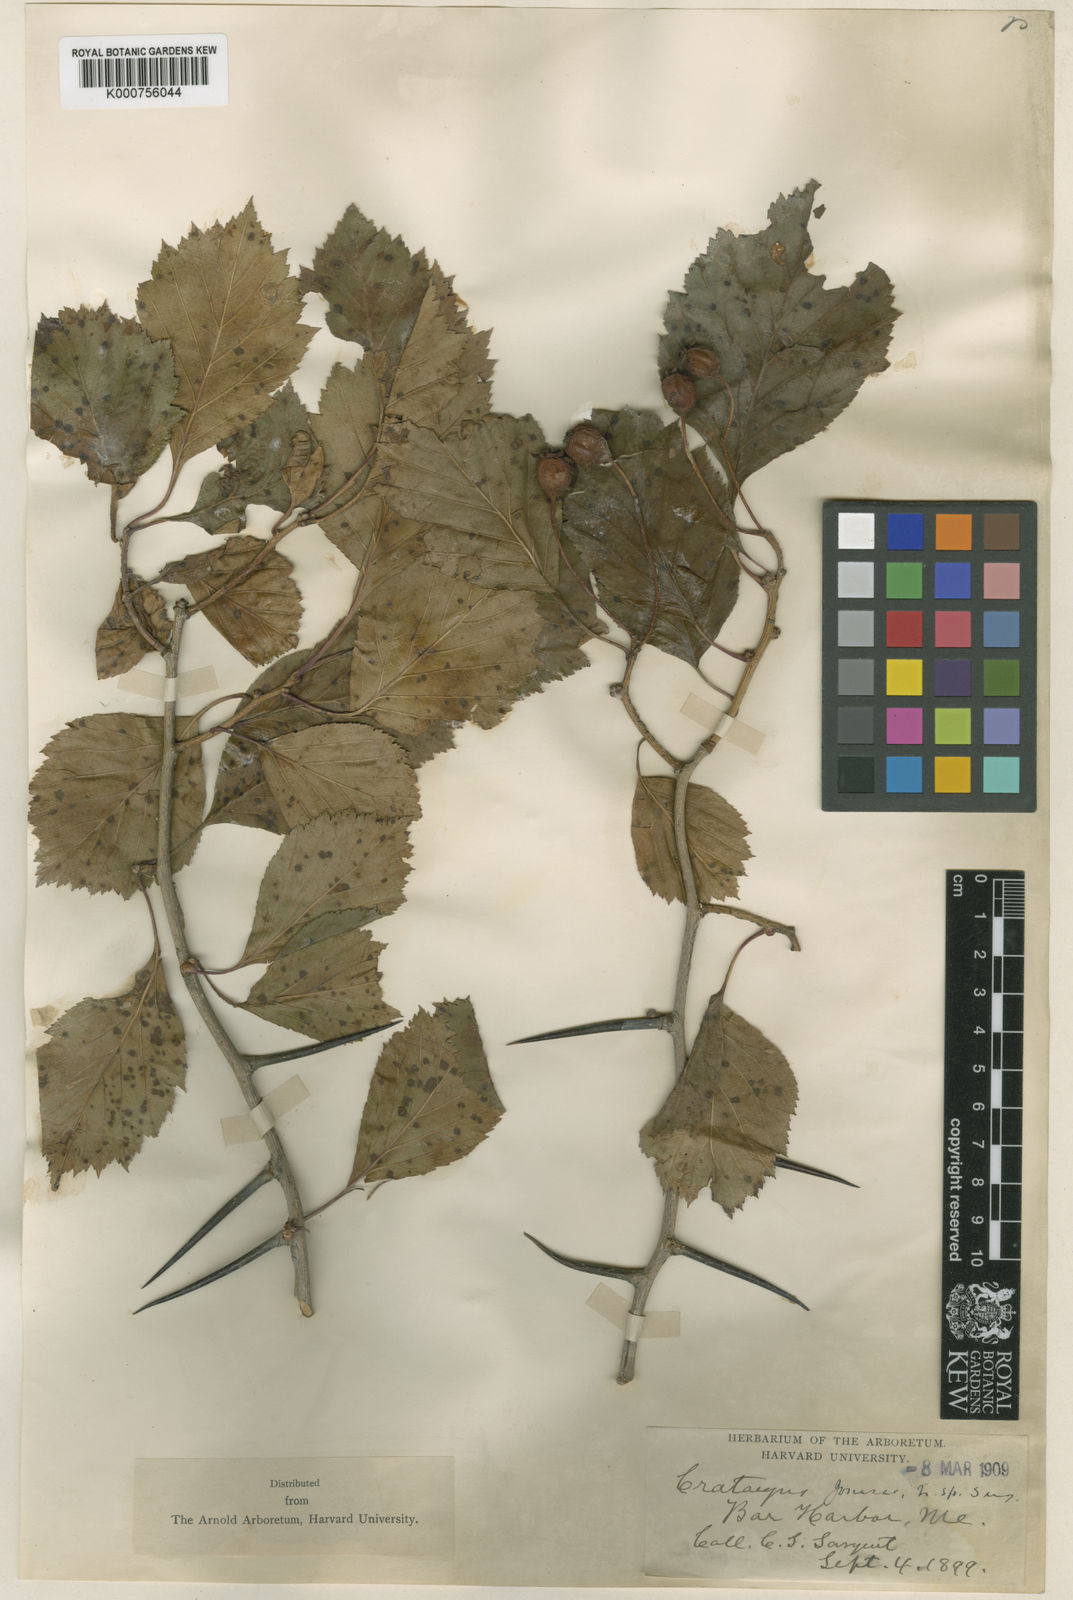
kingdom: Plantae
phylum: Tracheophyta
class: Magnoliopsida
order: Rosales
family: Rosaceae
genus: Crataegus
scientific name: Crataegus jonesae
